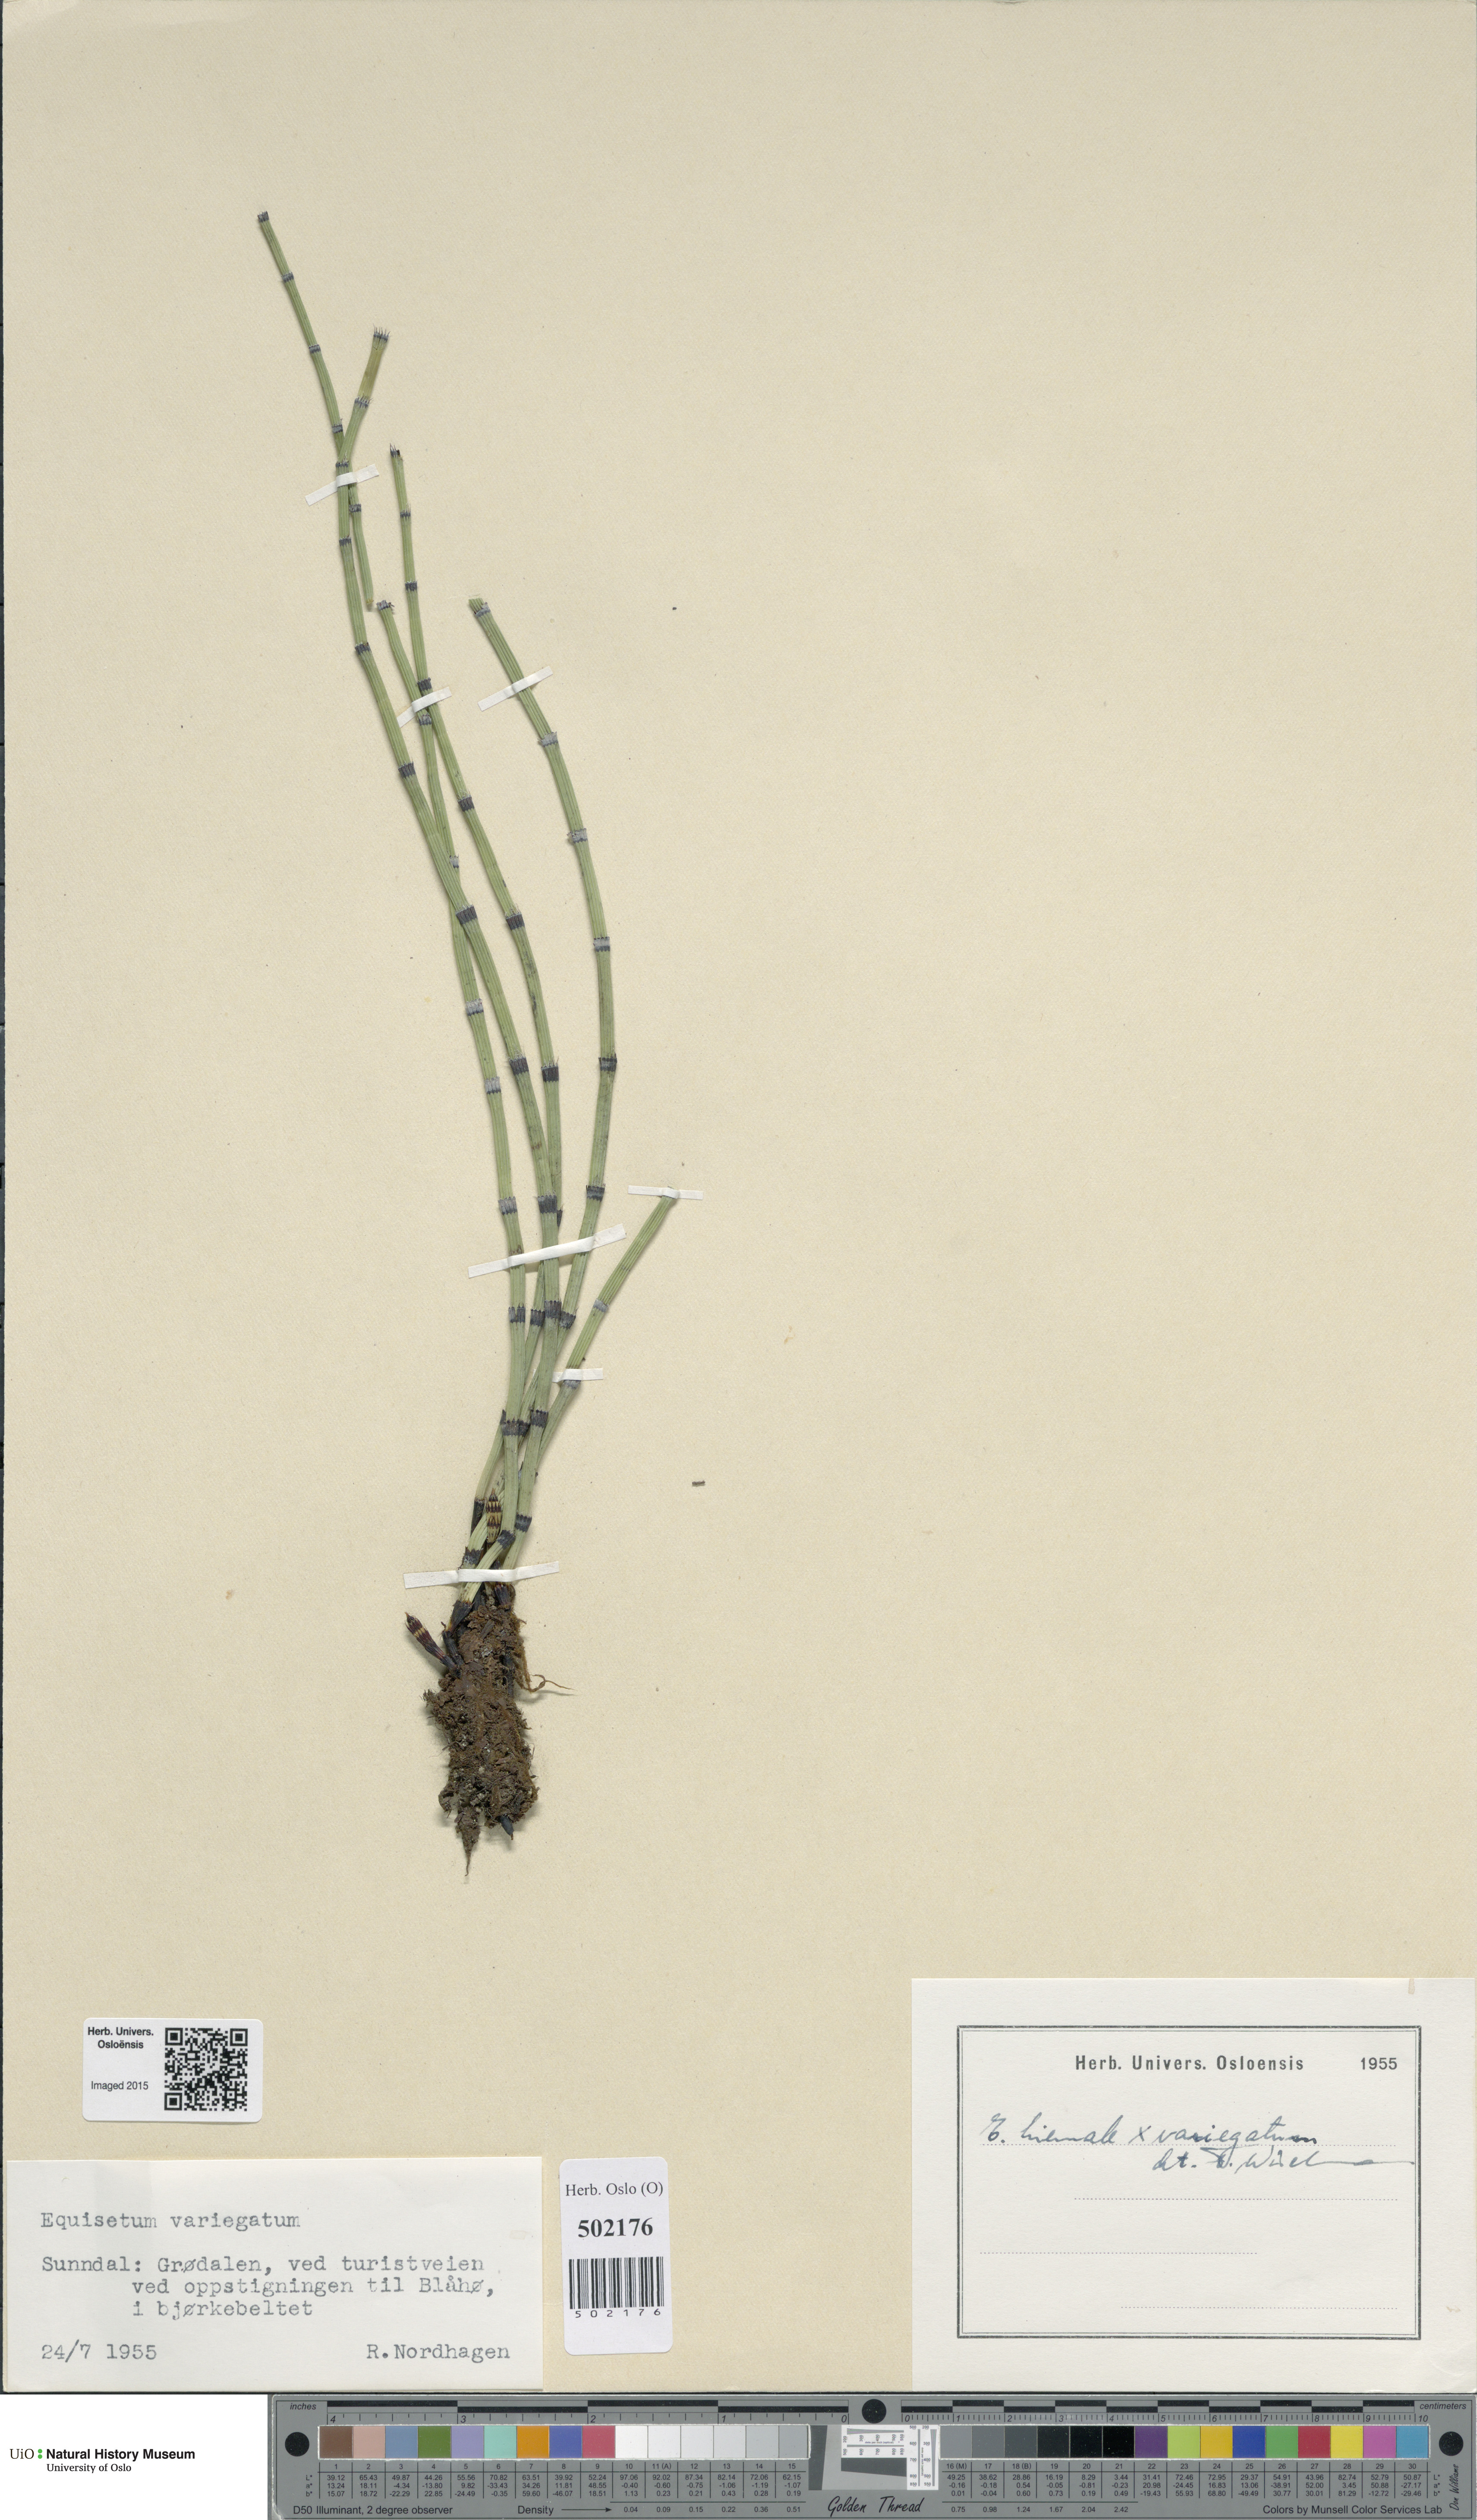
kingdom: Plantae
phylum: Tracheophyta
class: Polypodiopsida
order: Equisetales
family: Equisetaceae
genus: Equisetum
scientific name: Equisetum
